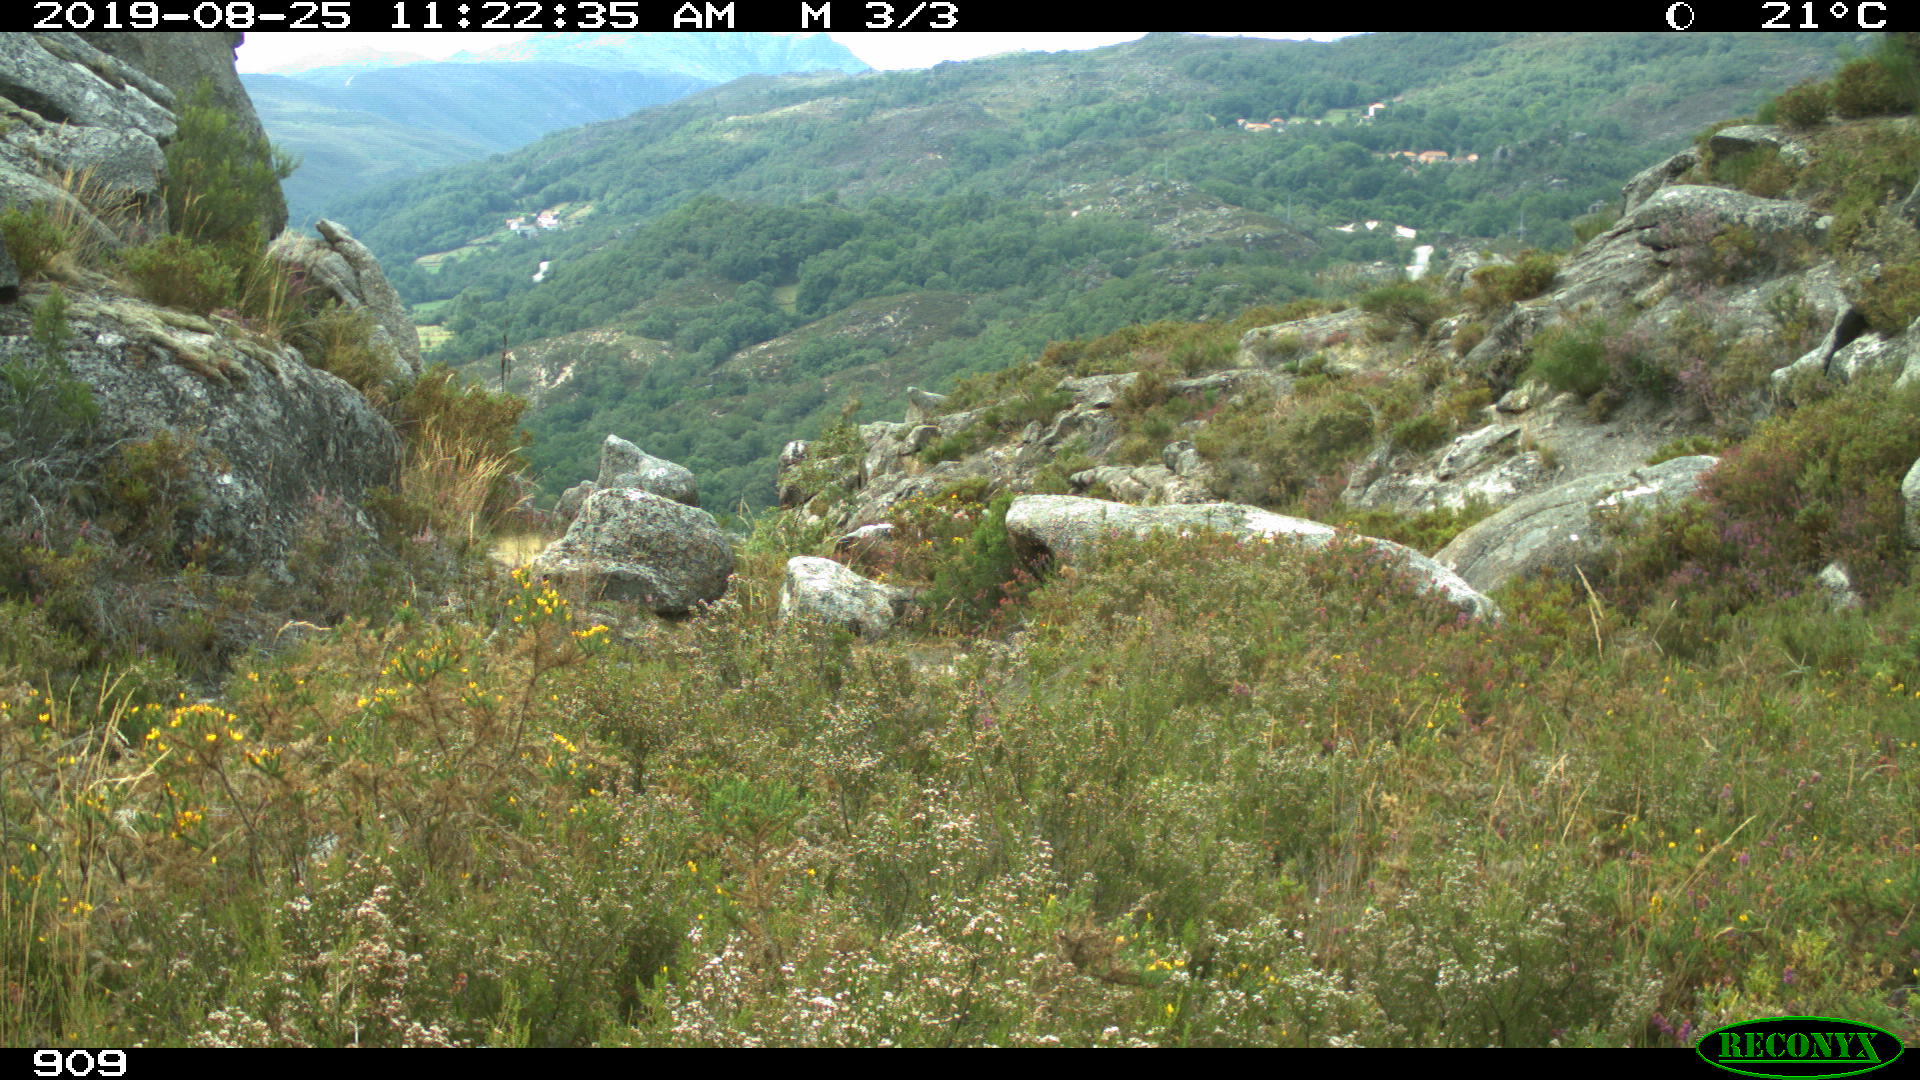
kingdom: Animalia
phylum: Chordata
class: Mammalia
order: Artiodactyla
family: Cervidae
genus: Capreolus
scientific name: Capreolus capreolus
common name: Western roe deer
